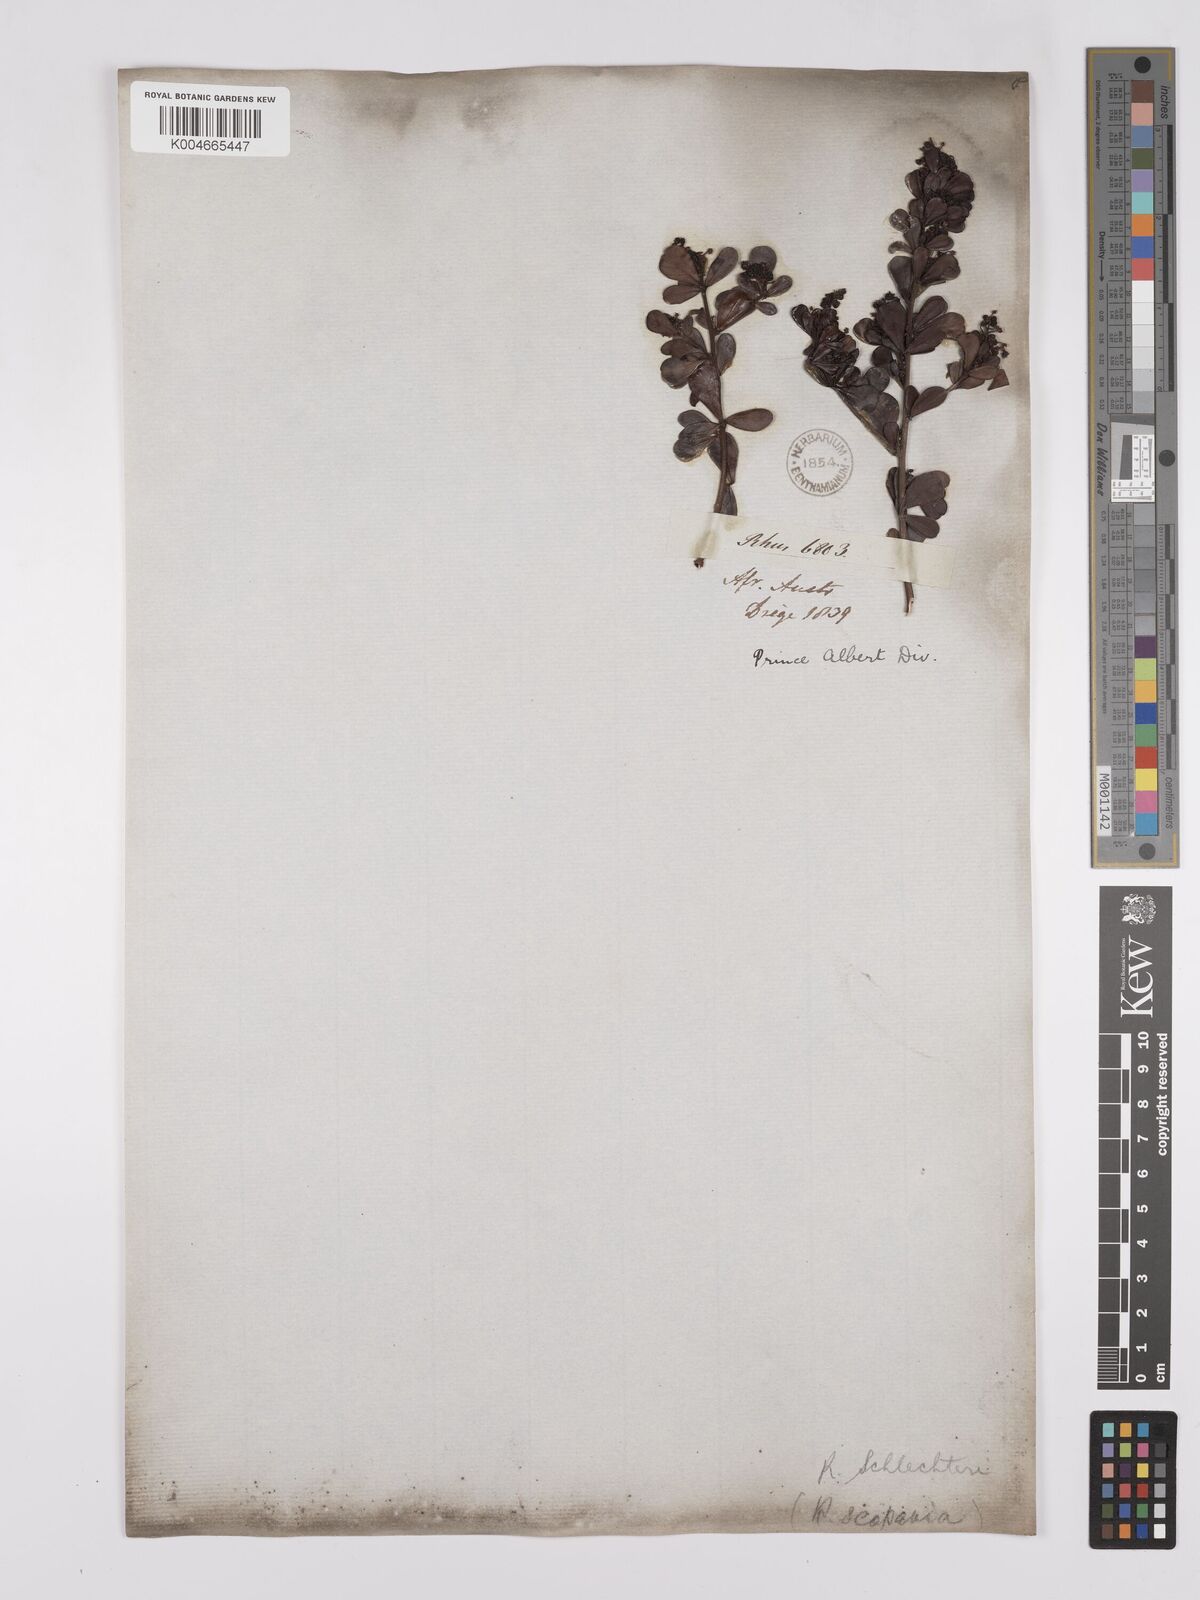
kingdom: Plantae
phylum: Tracheophyta
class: Magnoliopsida
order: Sapindales
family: Anacardiaceae
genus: Searsia
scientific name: Searsia lucida
